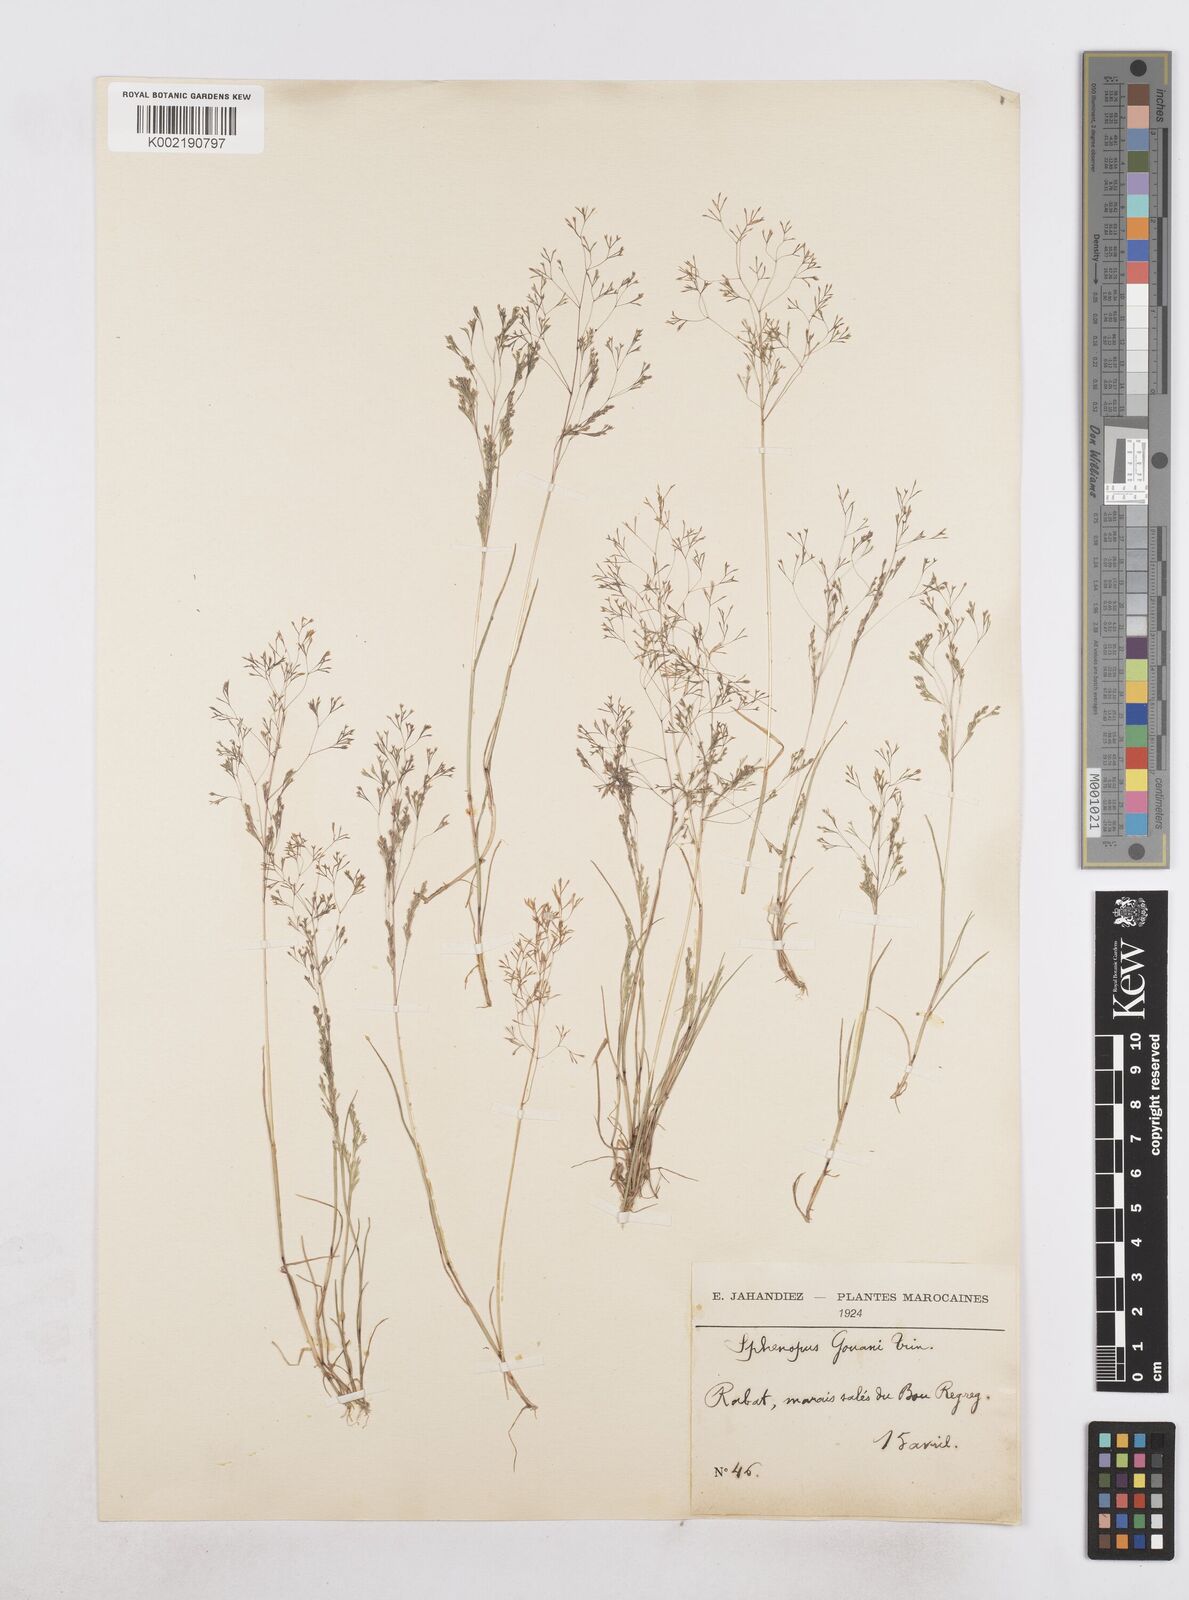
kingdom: Plantae
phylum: Tracheophyta
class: Liliopsida
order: Poales
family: Poaceae
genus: Sphenopus
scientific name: Sphenopus divaricatus
